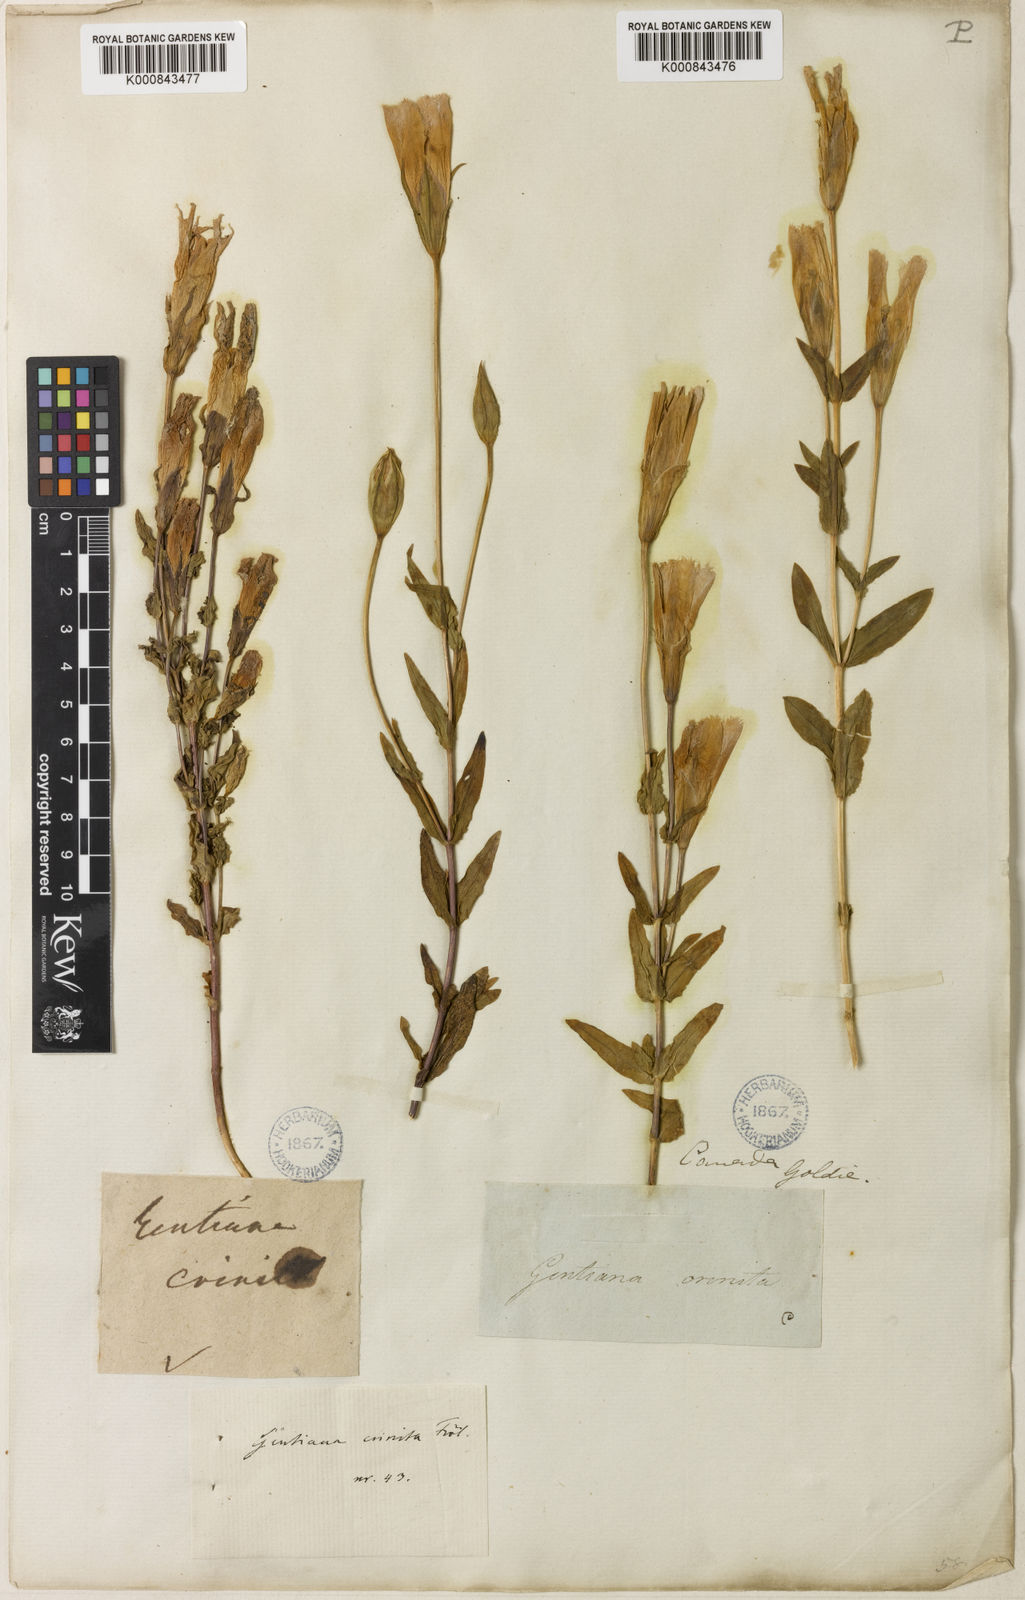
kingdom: Plantae
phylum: Tracheophyta
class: Magnoliopsida
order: Gentianales
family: Gentianaceae
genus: Gentianopsis
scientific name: Gentianopsis crinita
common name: Fringed-gentian
